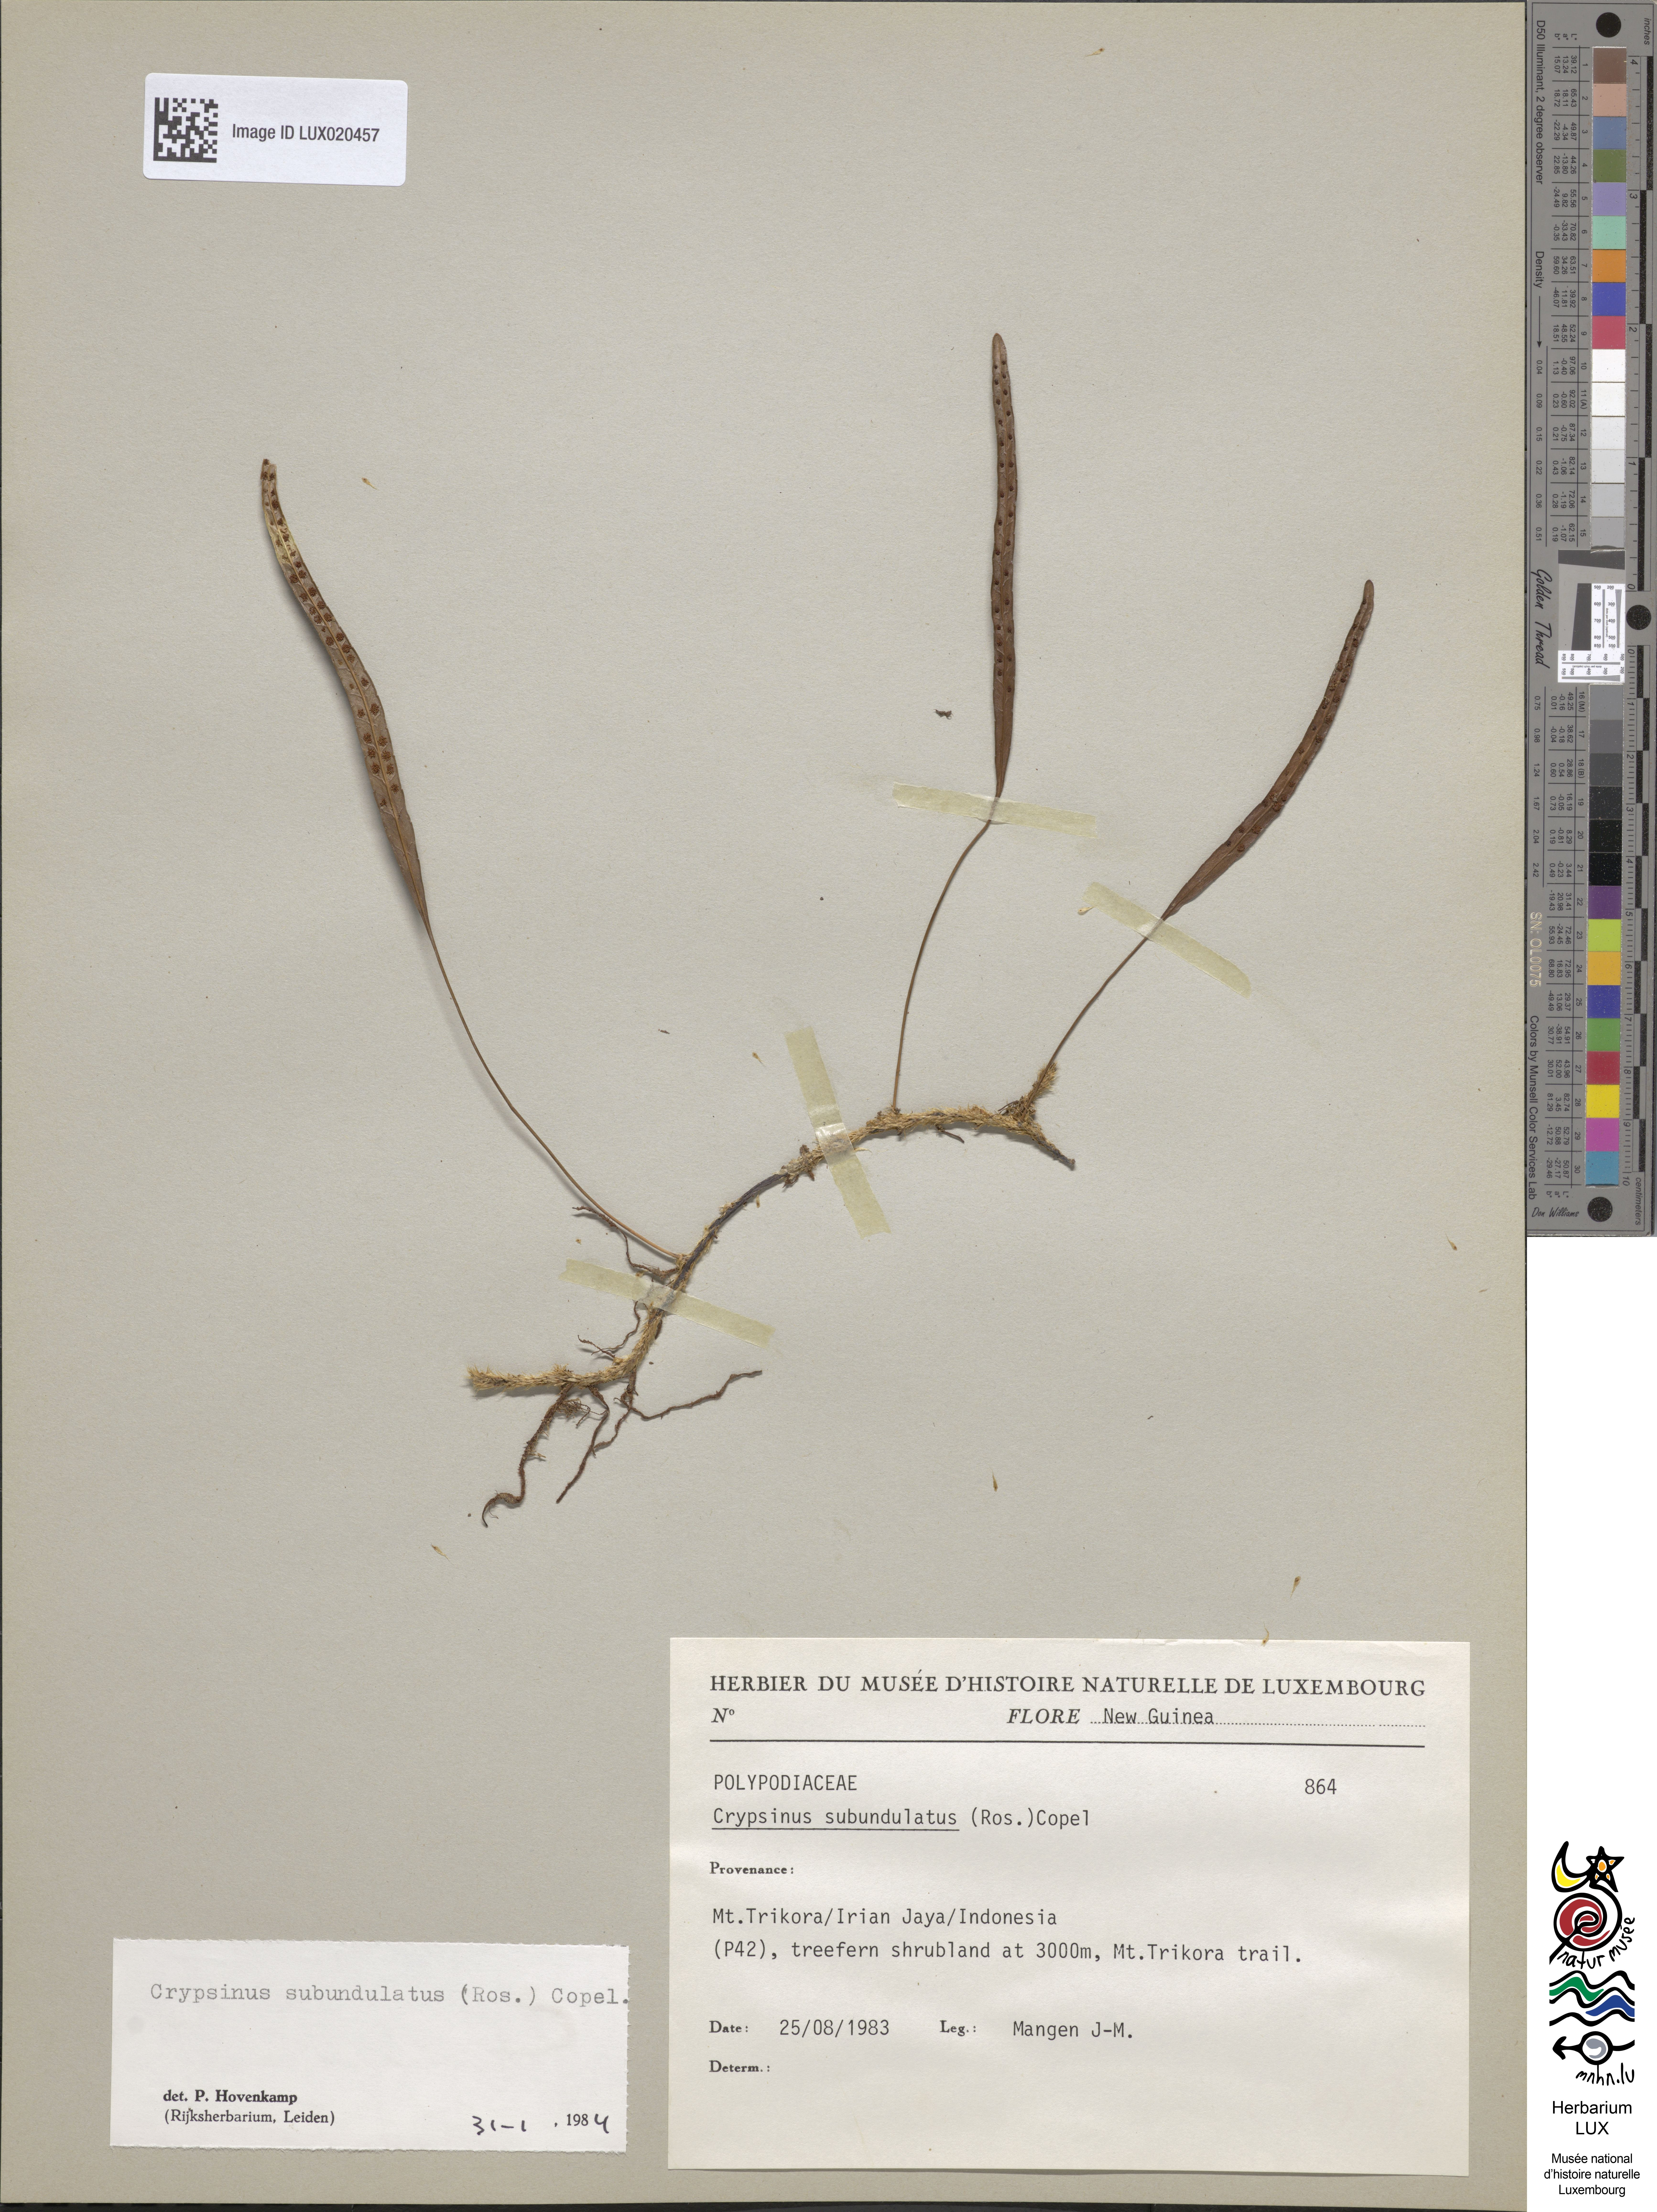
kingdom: Plantae
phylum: Tracheophyta
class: Polypodiopsida
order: Polypodiales
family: Polypodiaceae
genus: Selliguea
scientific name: Selliguea enervis
